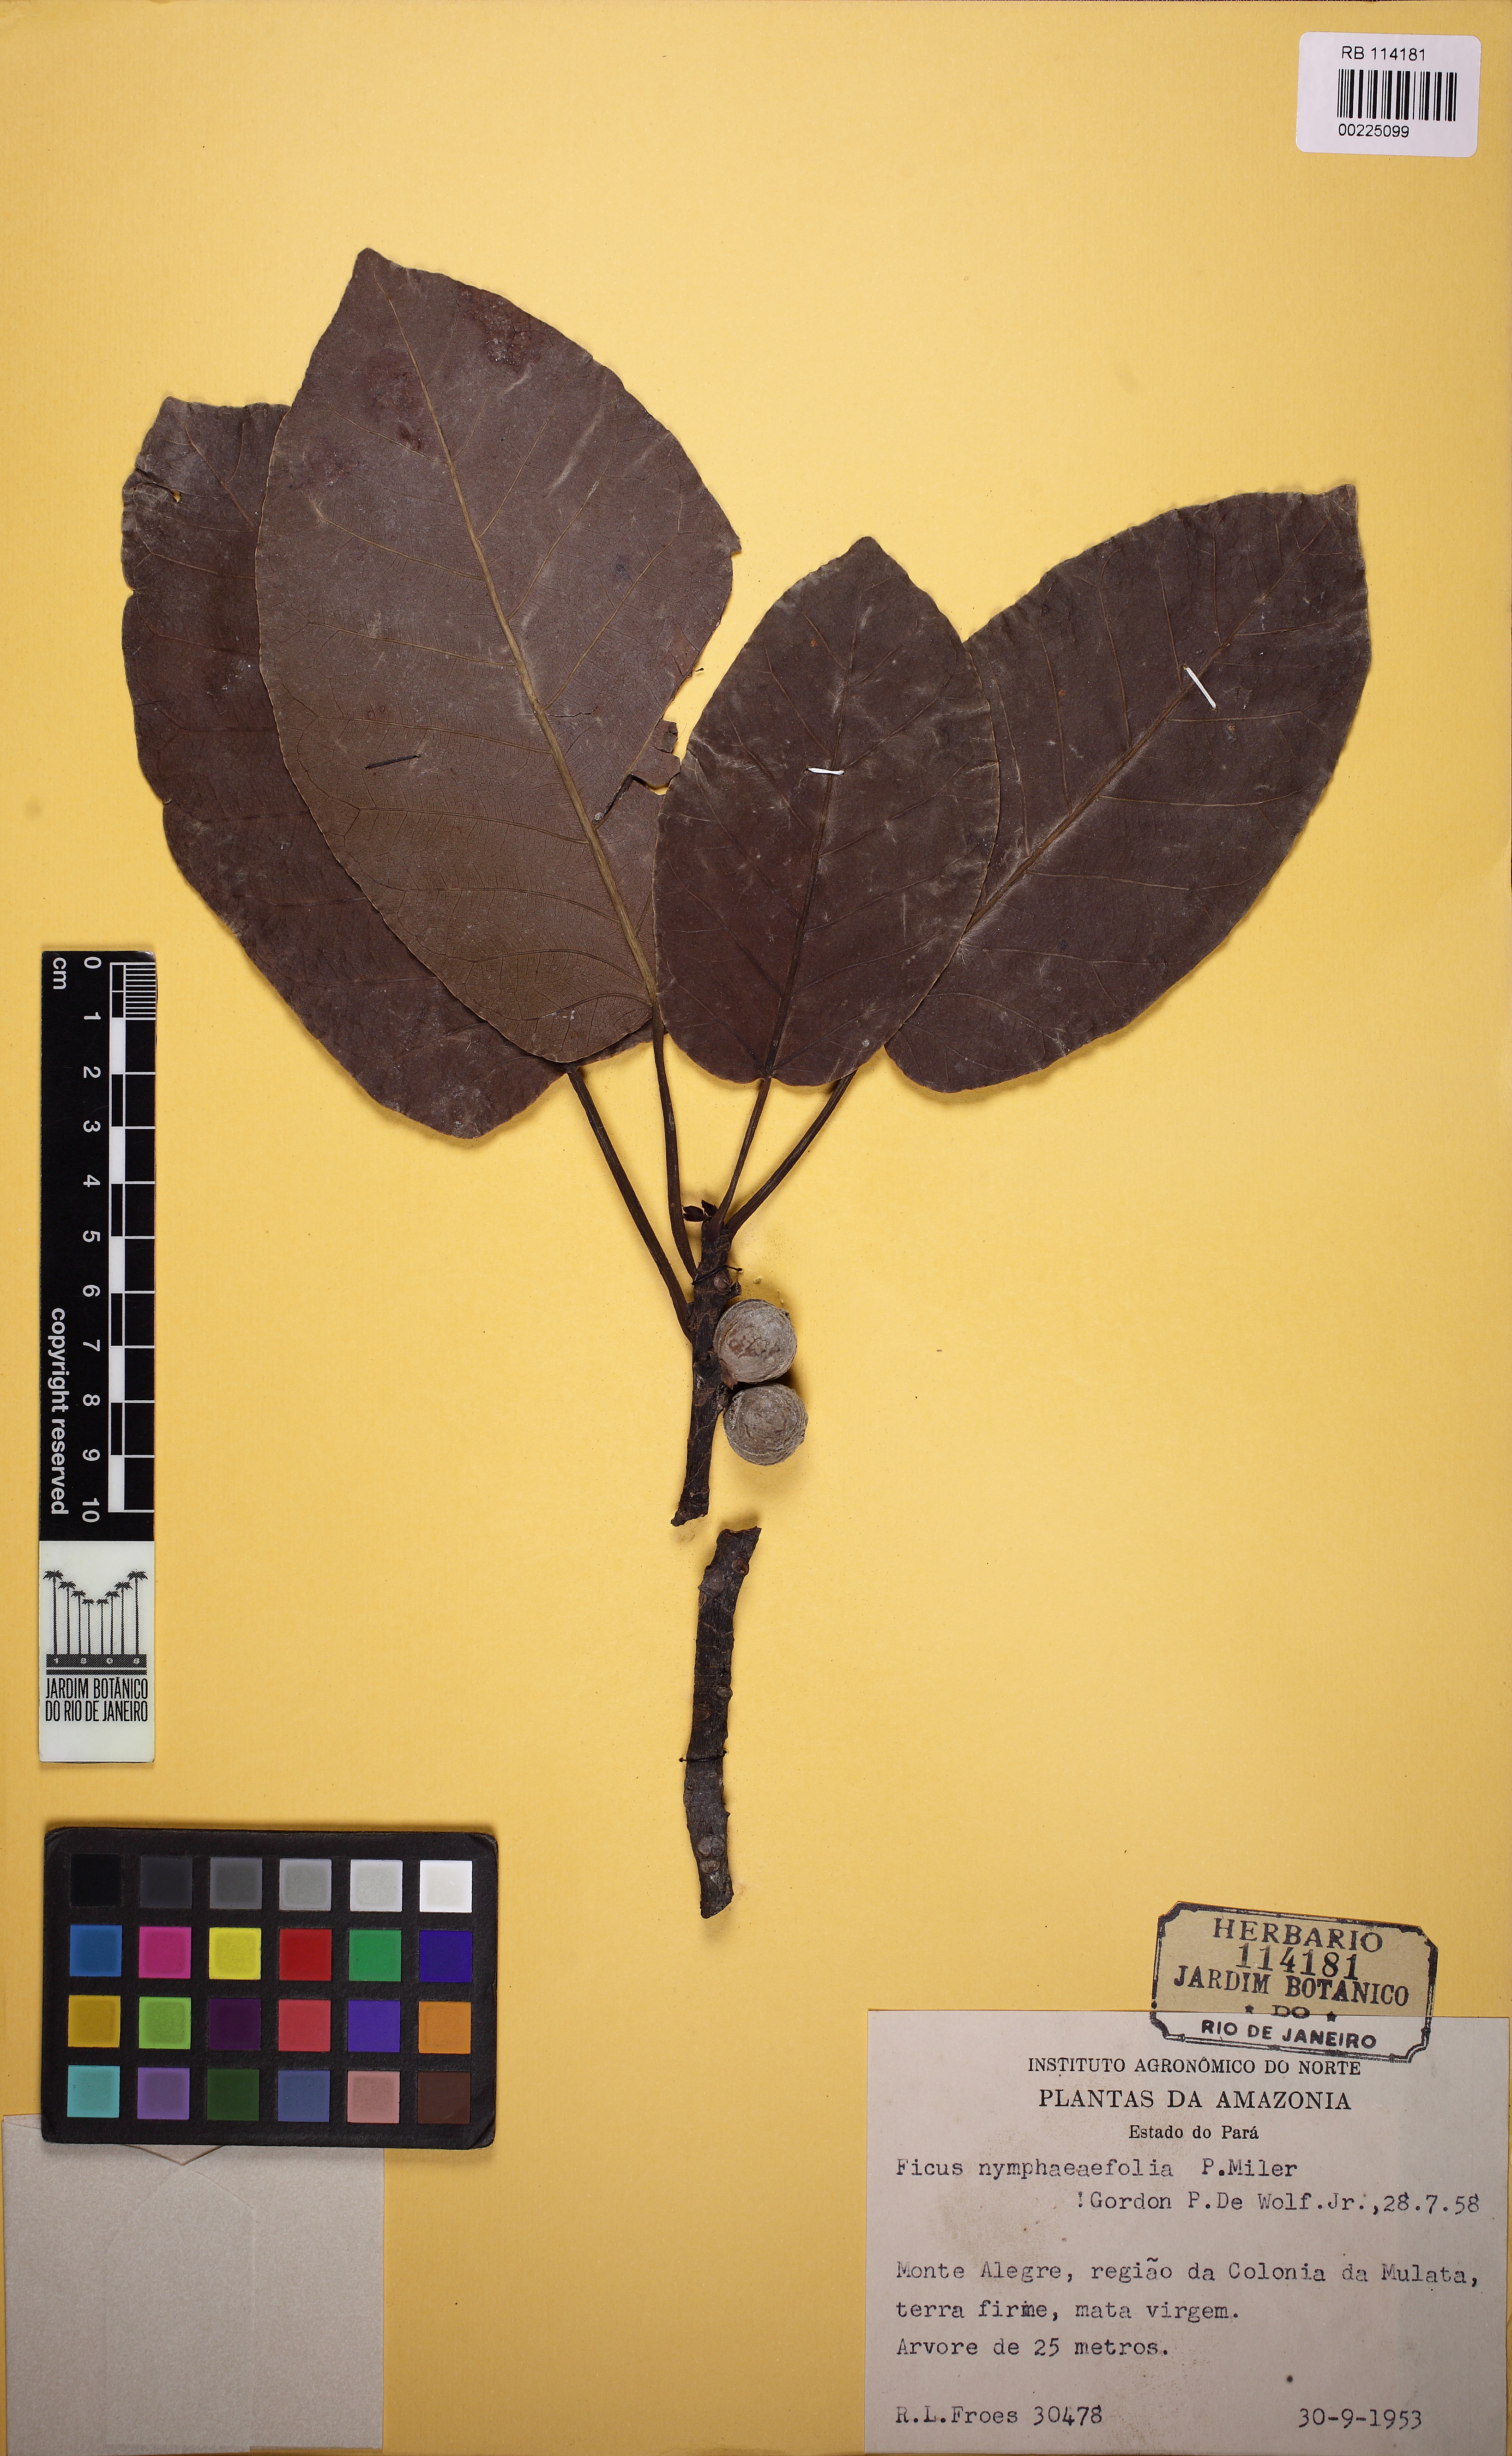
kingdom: Plantae
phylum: Tracheophyta
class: Magnoliopsida
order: Rosales
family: Moraceae
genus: Ficus
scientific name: Ficus nymphaeifolia
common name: Fig
